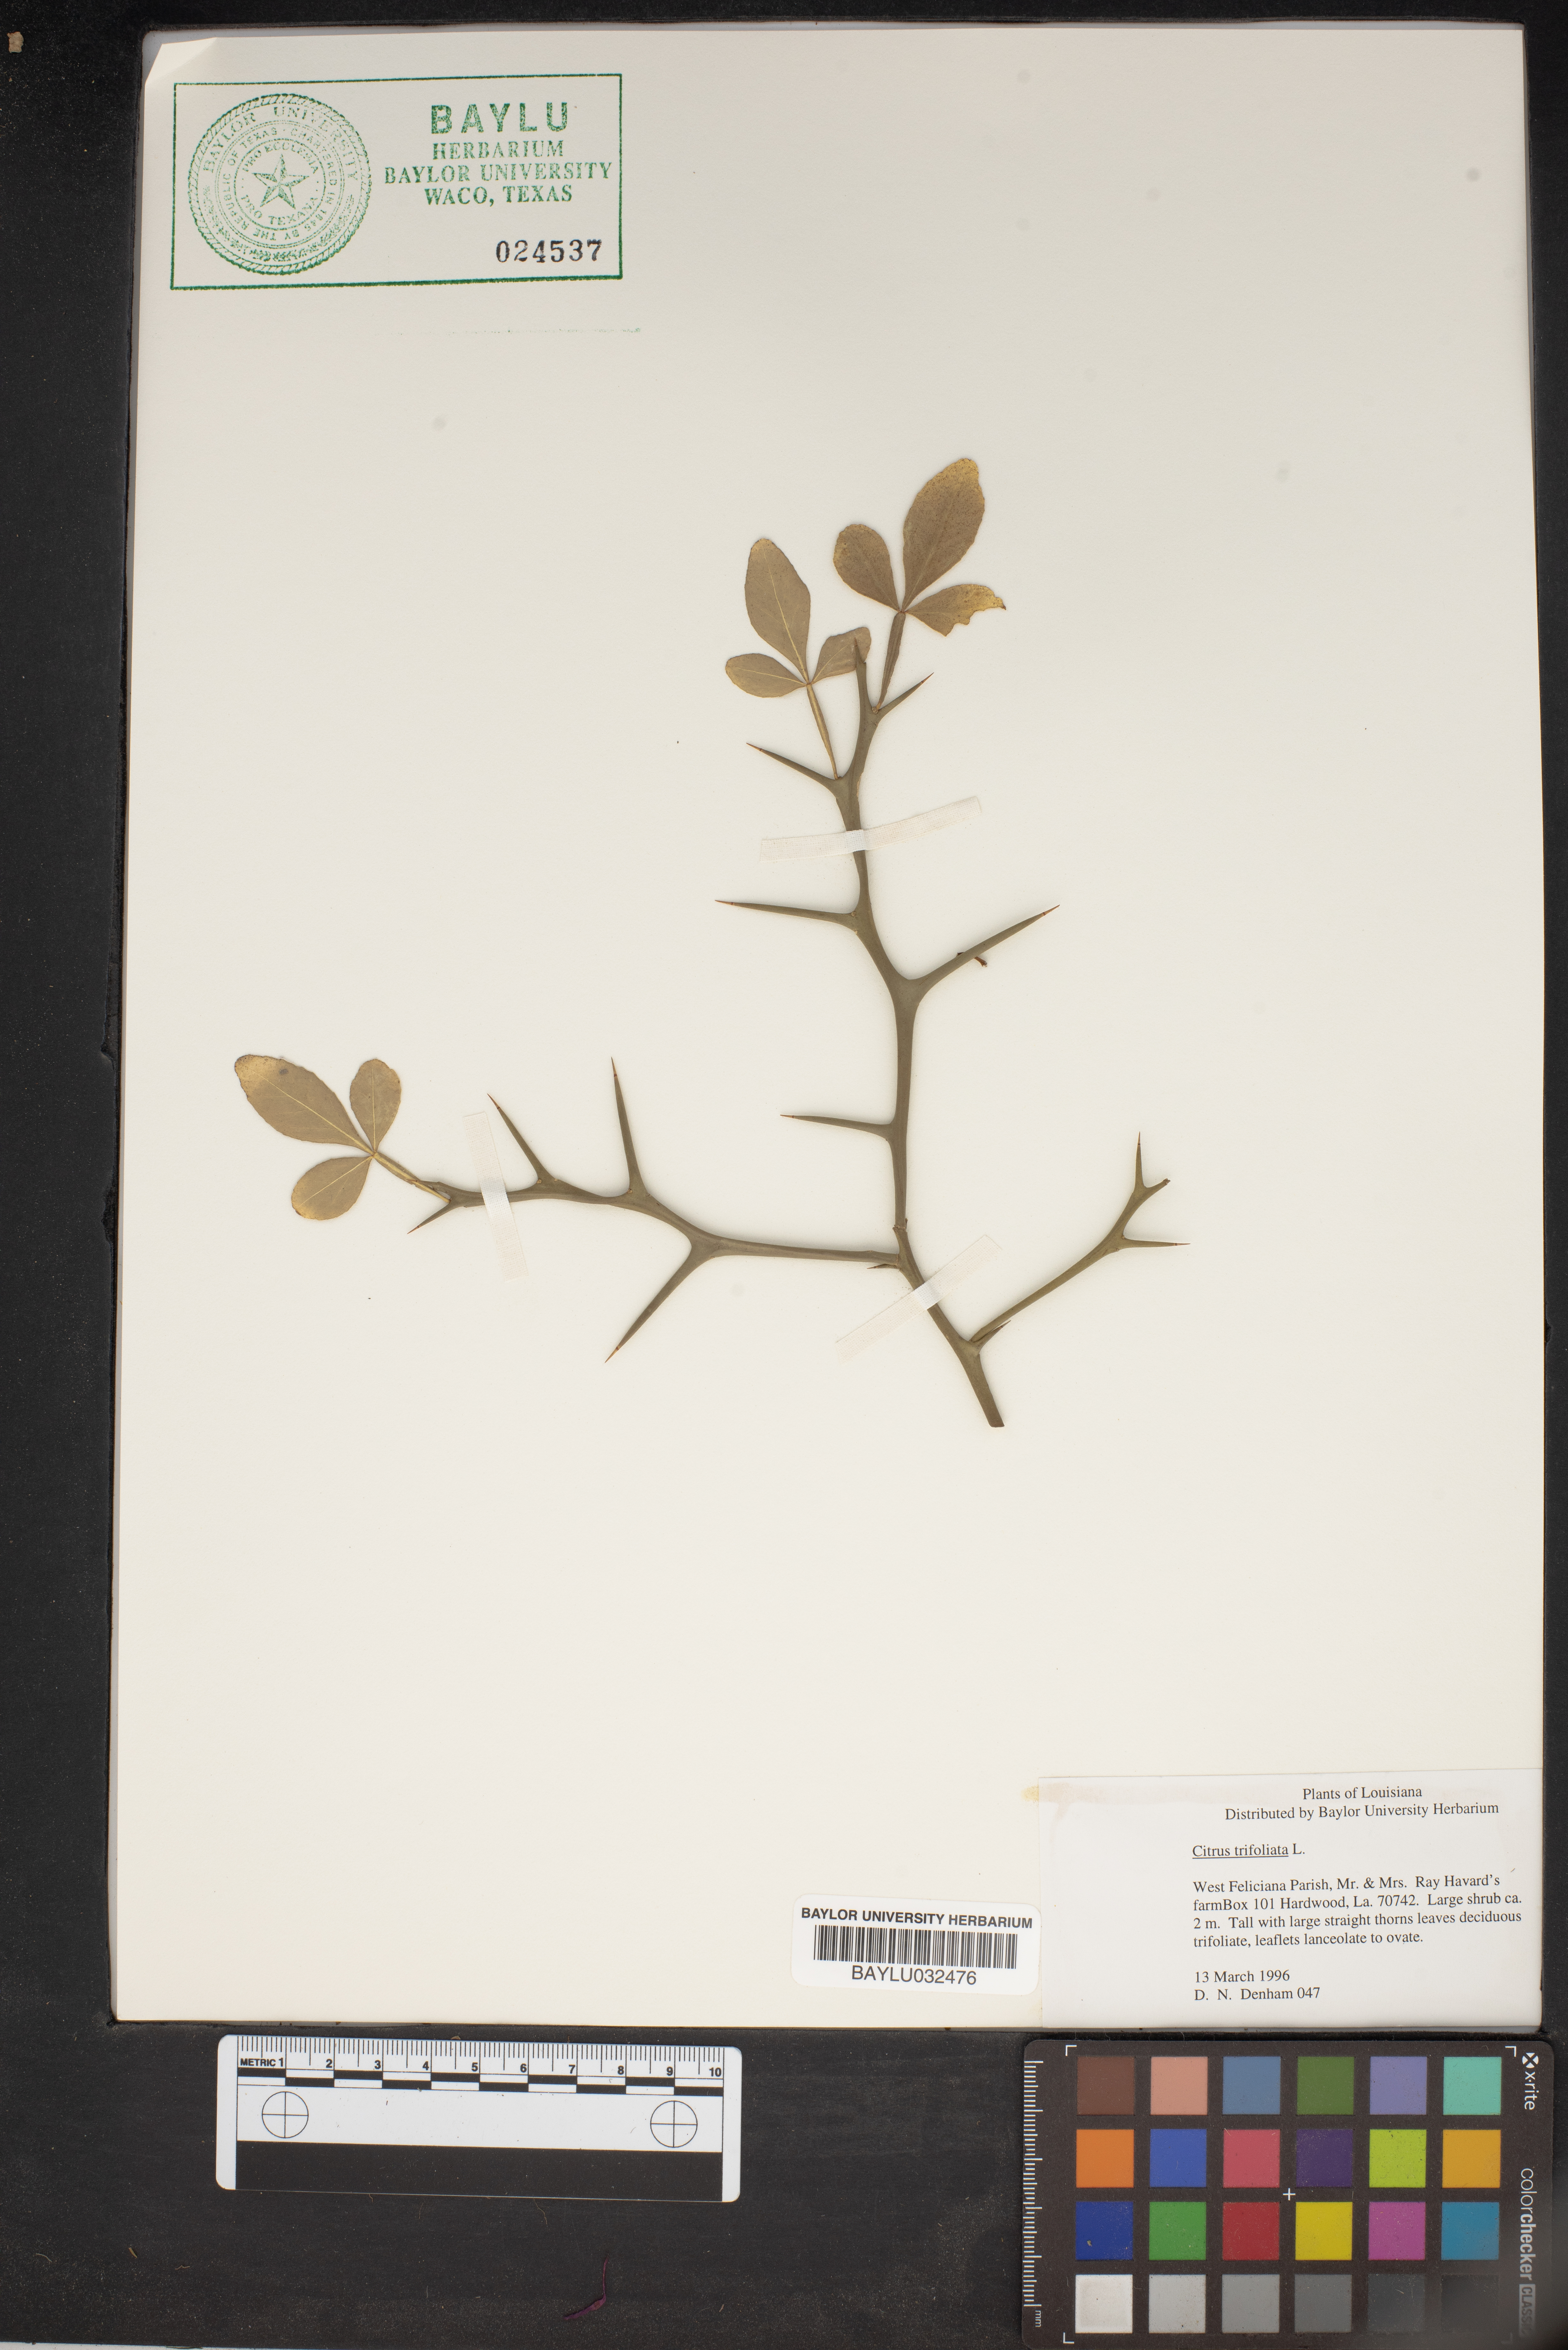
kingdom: Plantae
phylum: Tracheophyta
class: Magnoliopsida
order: Sapindales
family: Rutaceae
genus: Citrus
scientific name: Citrus trifoliata
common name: Japanese bitter-orange
